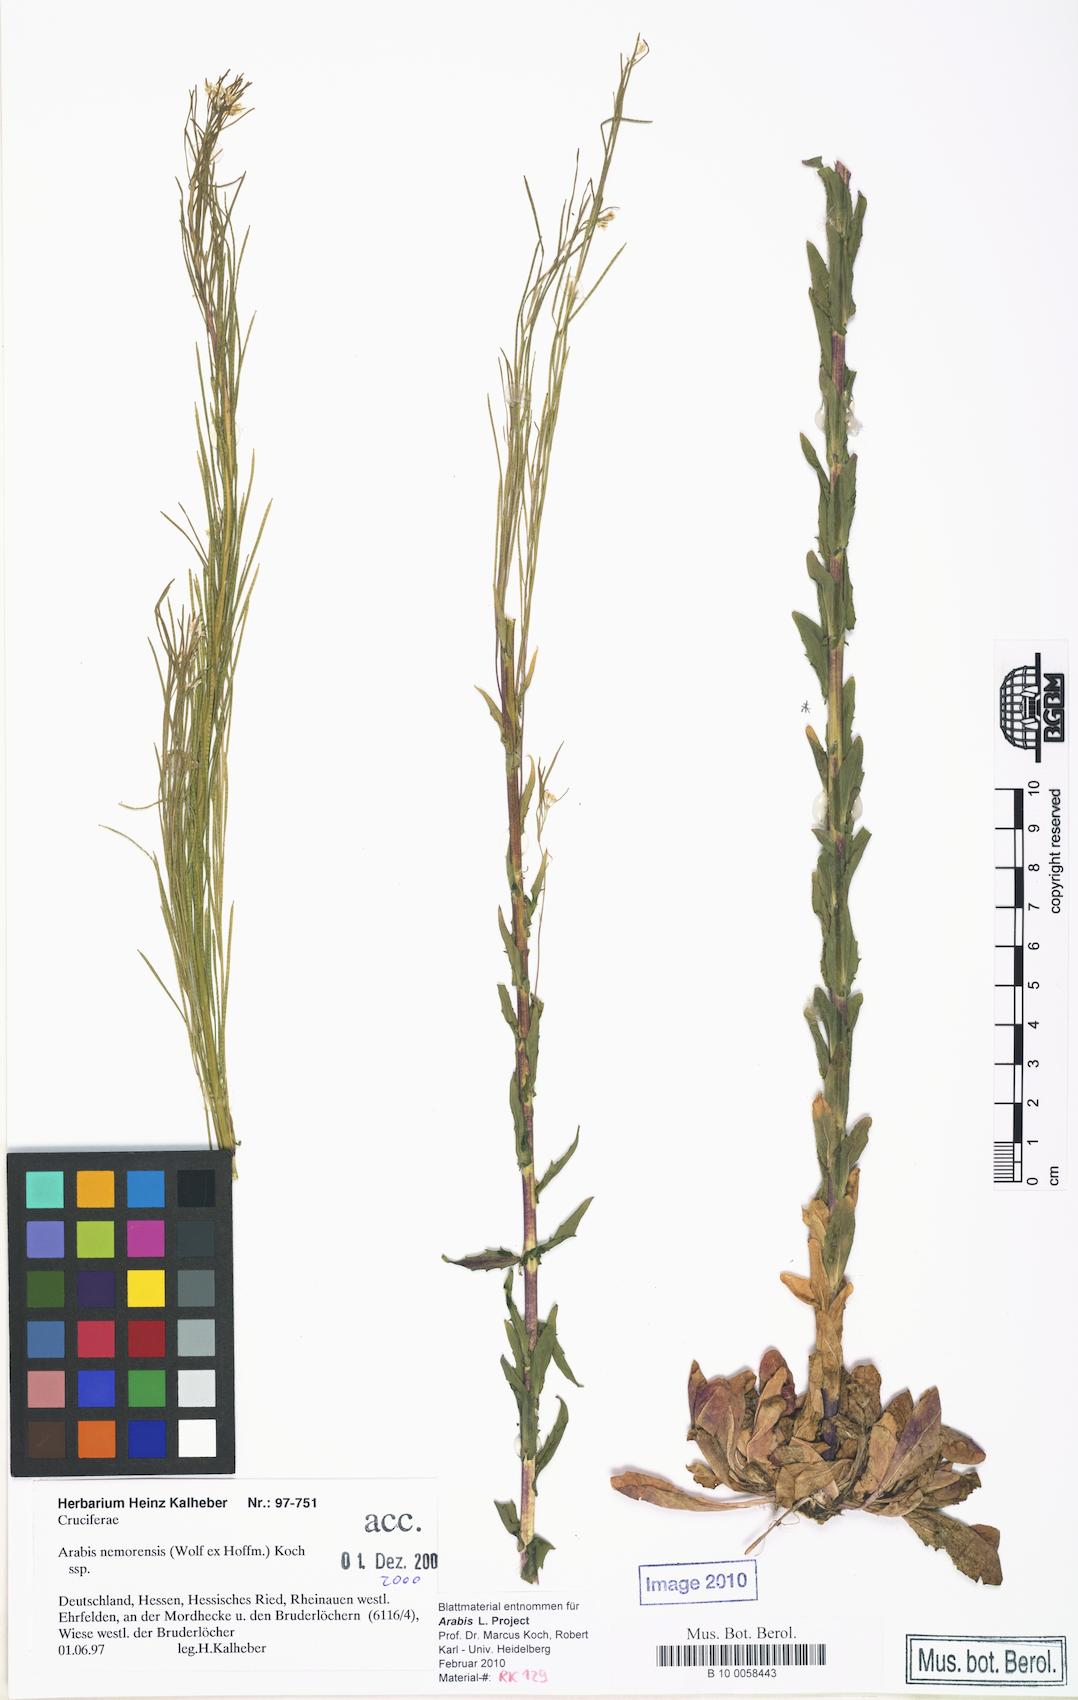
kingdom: Plantae
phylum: Tracheophyta
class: Magnoliopsida
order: Brassicales
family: Brassicaceae
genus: Arabis
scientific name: Arabis planisiliqua
